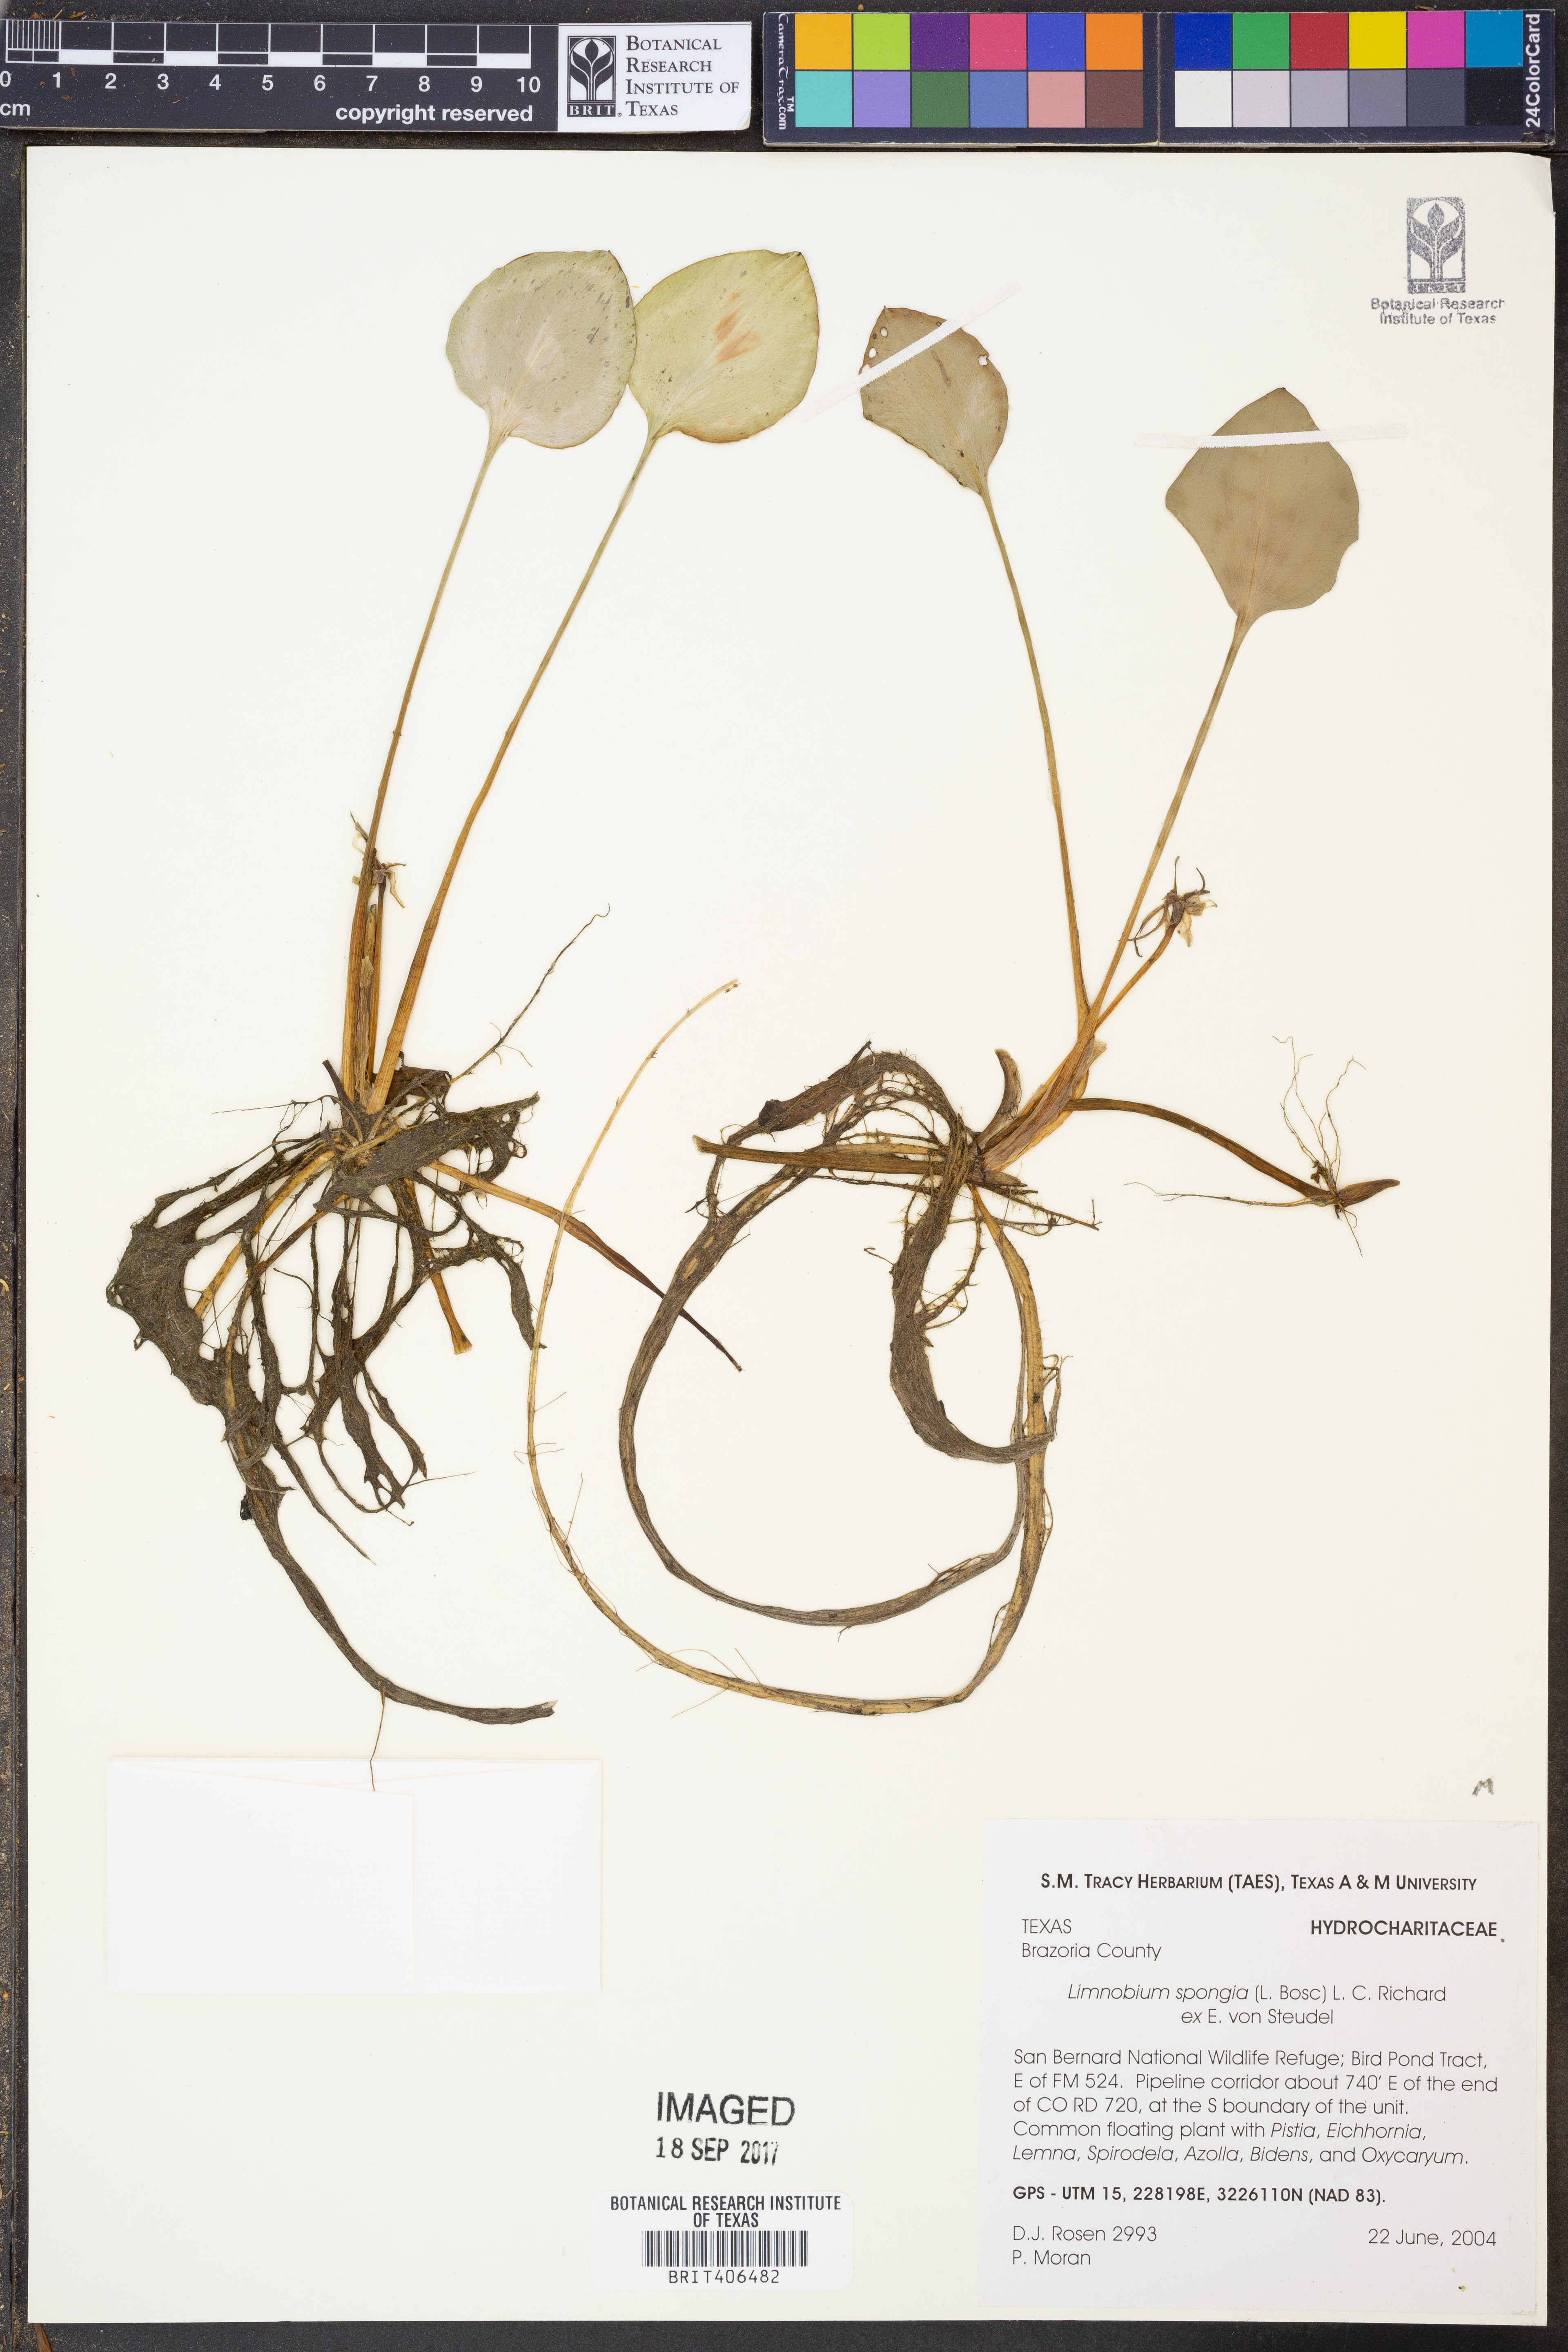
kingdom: Plantae
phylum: Tracheophyta
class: Liliopsida
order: Alismatales
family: Hydrocharitaceae
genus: Hydrocharis
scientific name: Hydrocharis spongia
